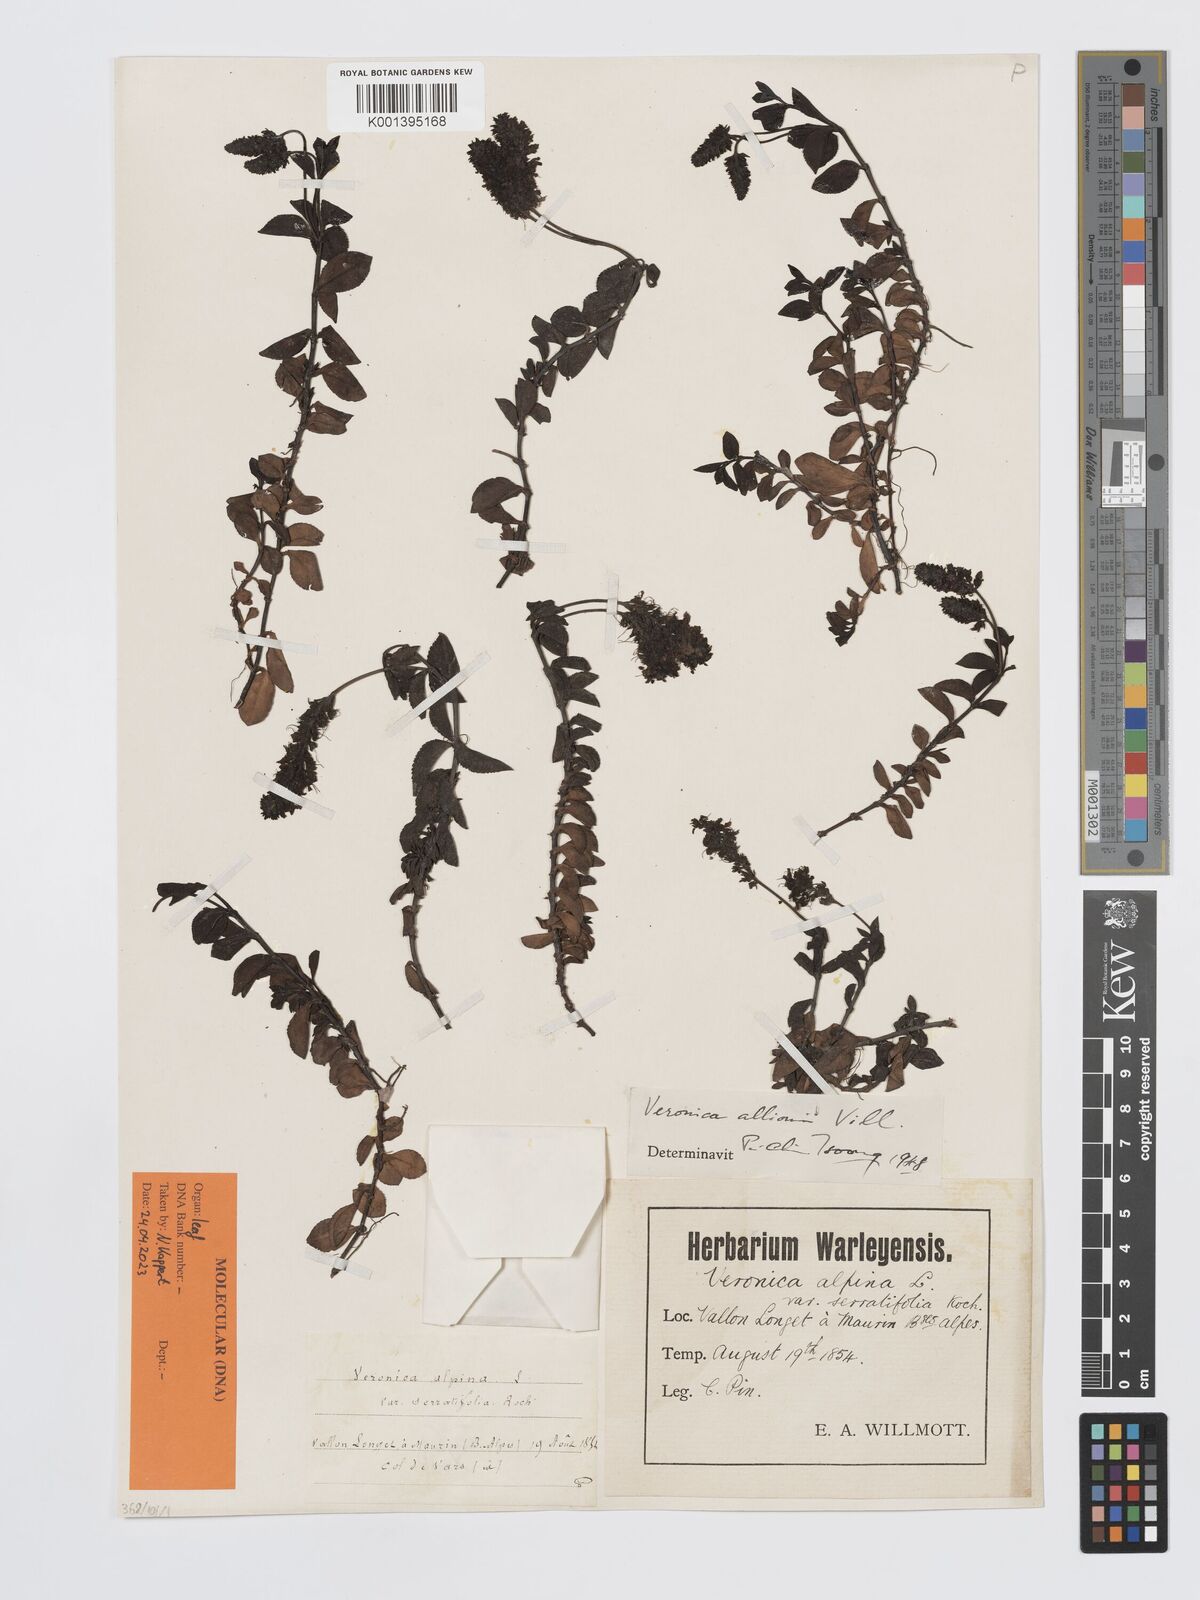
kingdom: Plantae
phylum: Tracheophyta
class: Magnoliopsida
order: Lamiales
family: Plantaginaceae
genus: Veronica
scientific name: Veronica allionii
